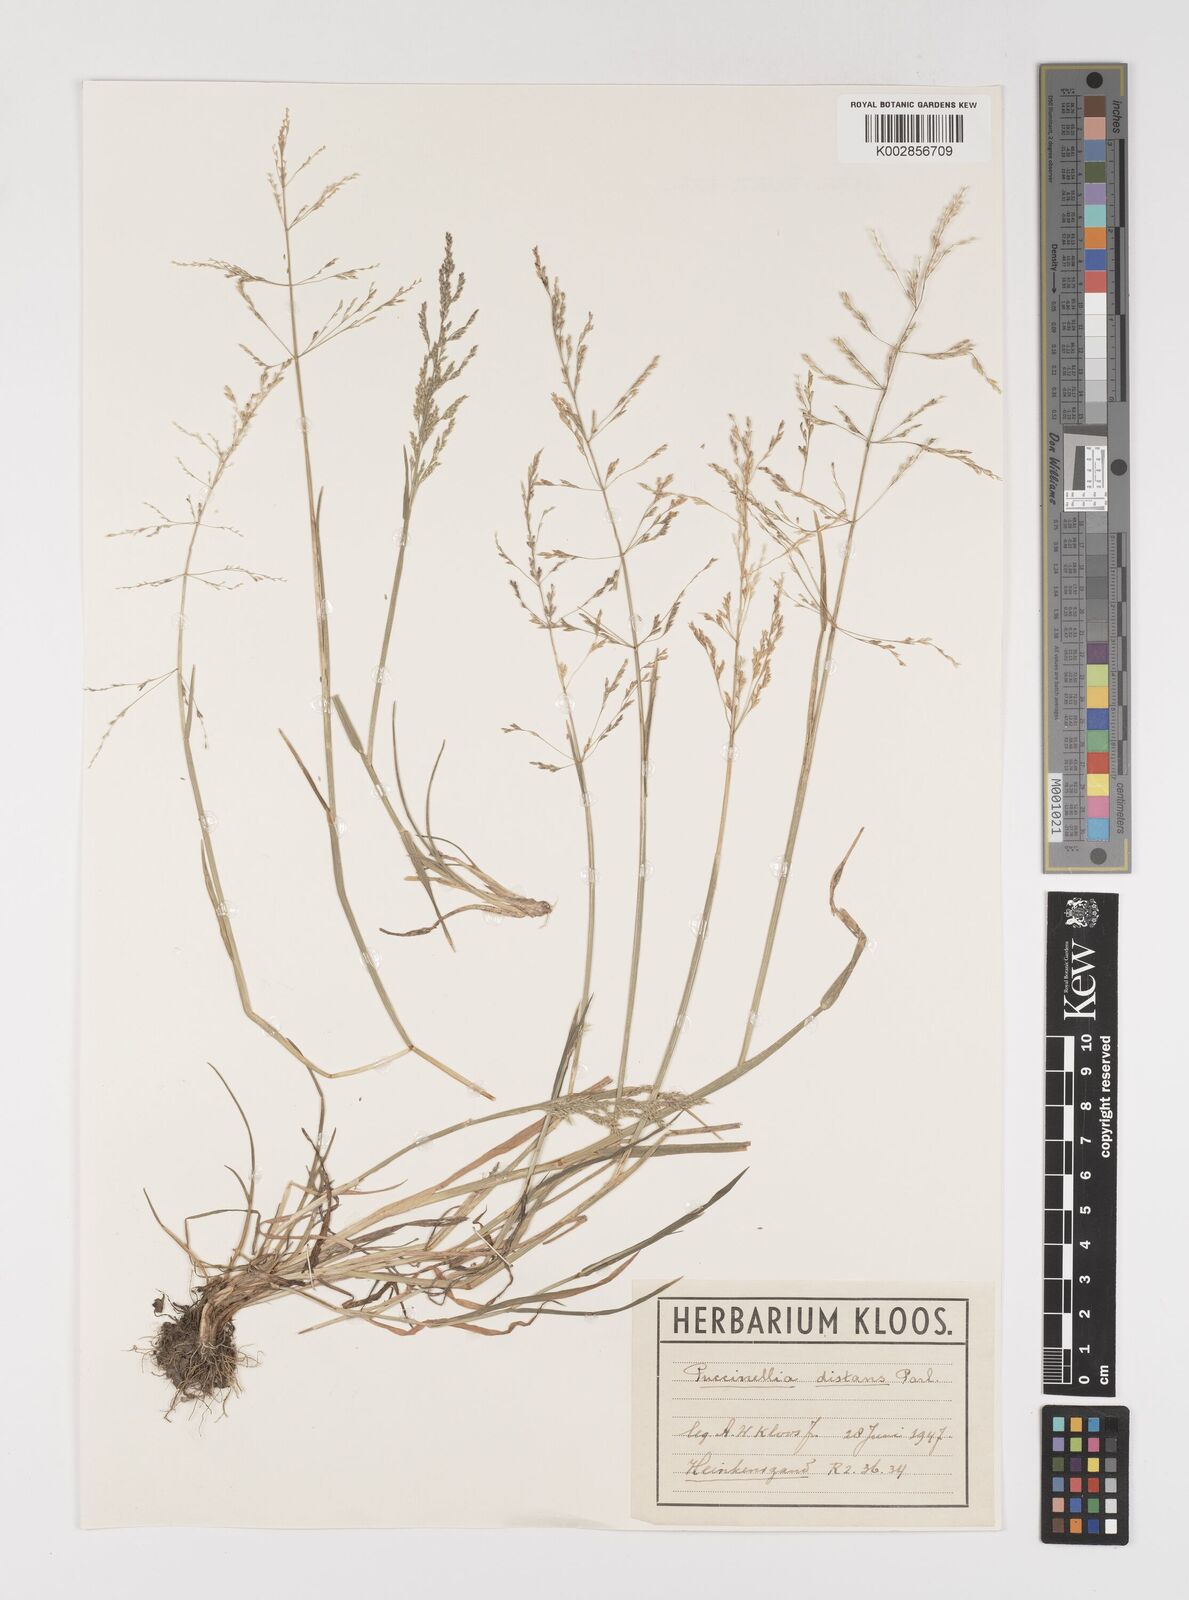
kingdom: Plantae
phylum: Tracheophyta
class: Liliopsida
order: Poales
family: Poaceae
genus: Puccinellia
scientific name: Puccinellia distans
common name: Weeping alkaligrass
